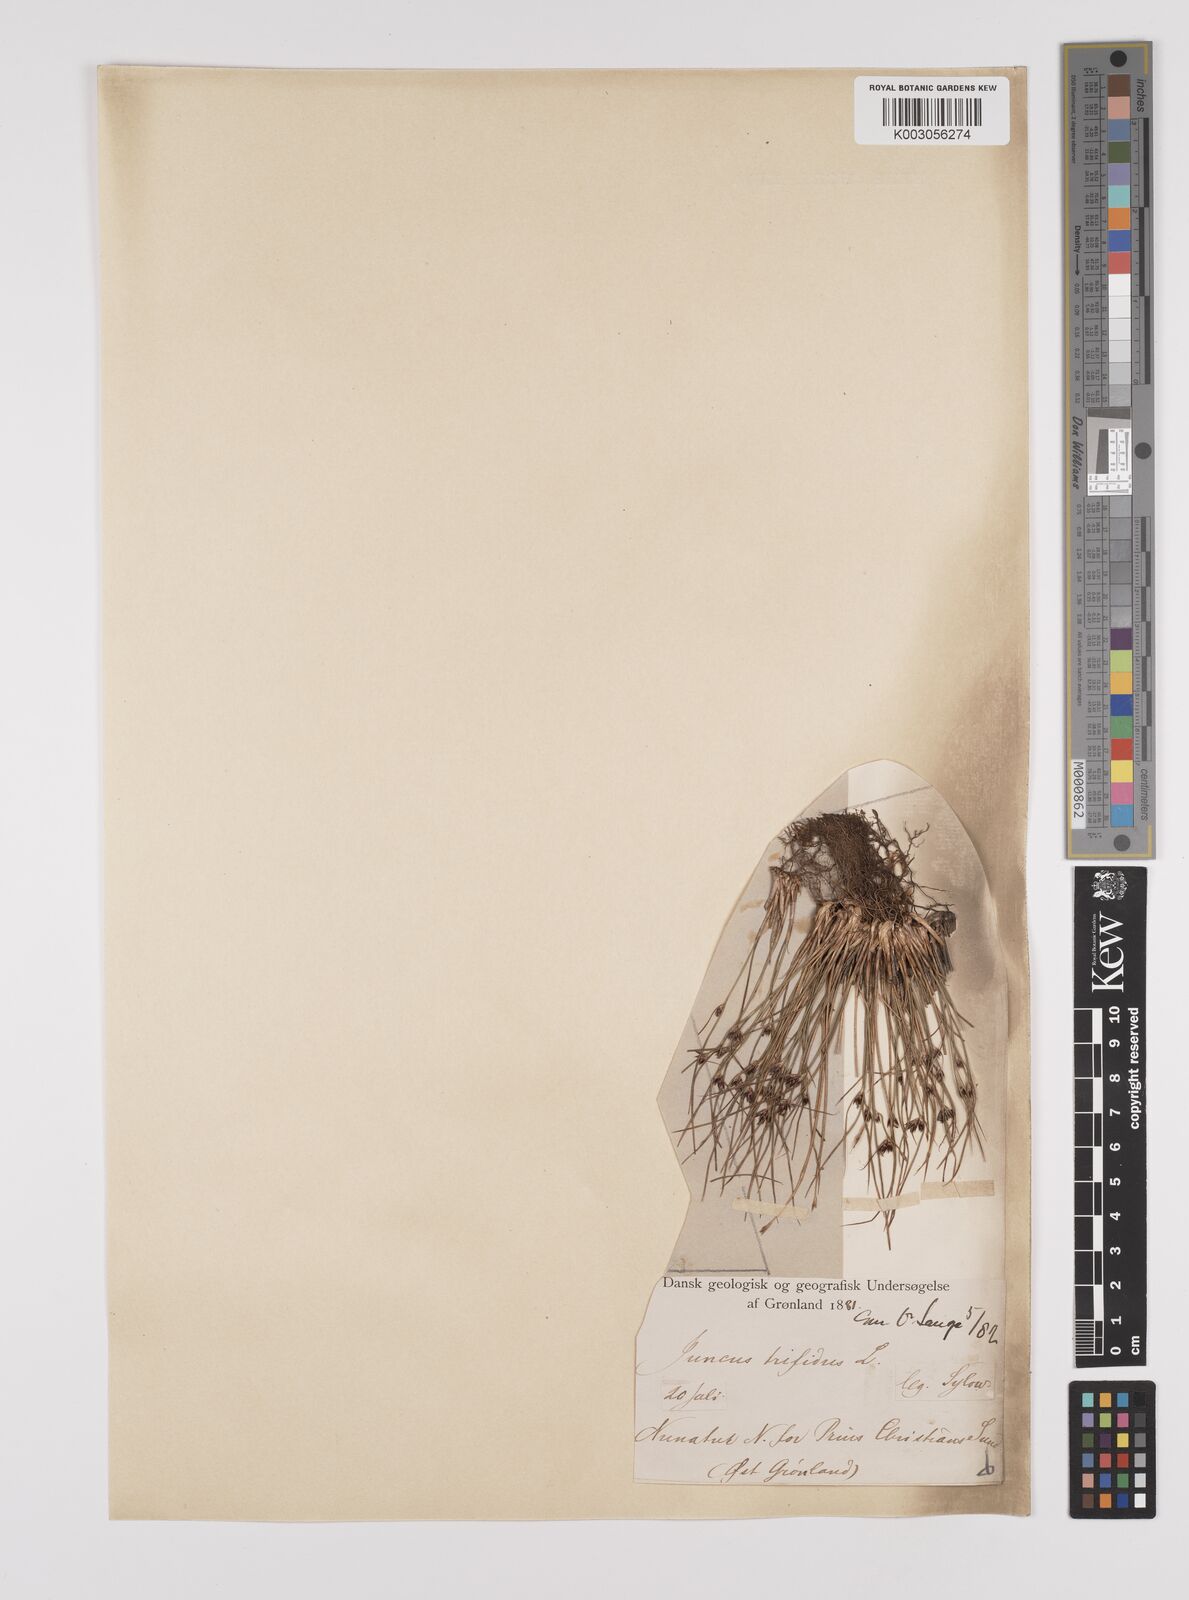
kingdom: Plantae
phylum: Tracheophyta
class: Liliopsida
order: Poales
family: Juncaceae
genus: Oreojuncus
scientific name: Oreojuncus trifidus
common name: Highland rush
